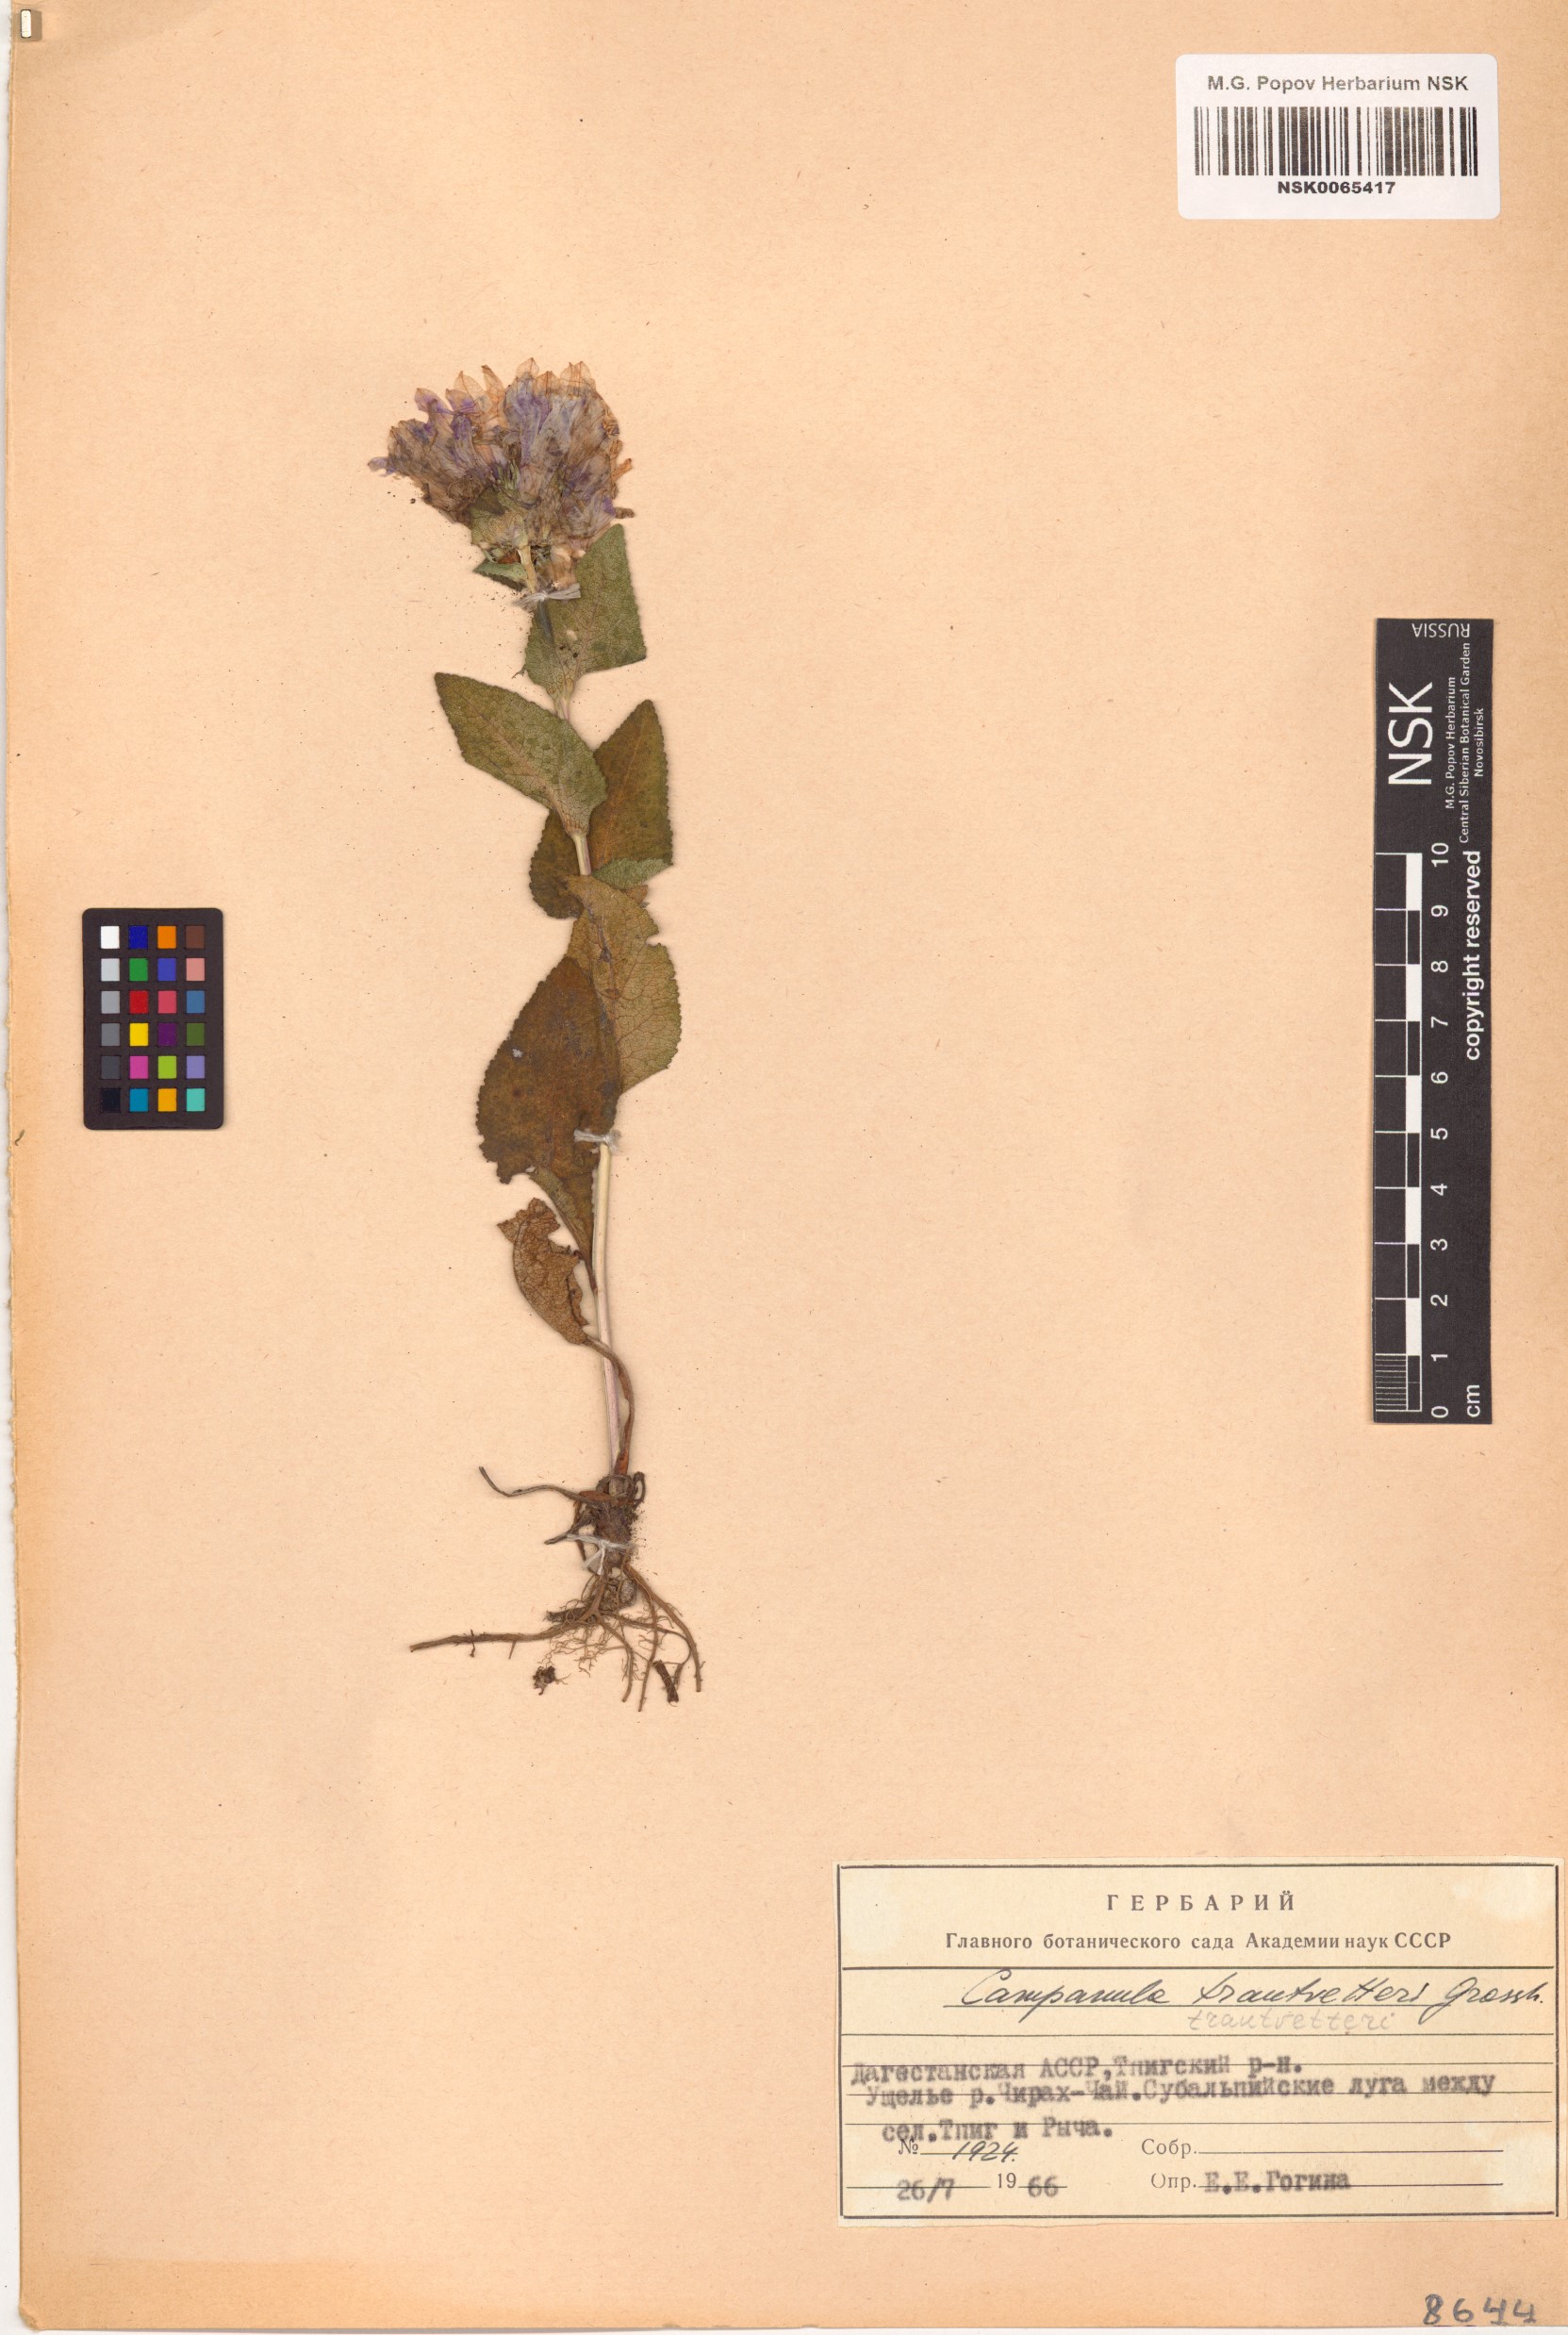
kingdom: Plantae
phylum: Tracheophyta
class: Magnoliopsida
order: Asterales
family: Campanulaceae
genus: Campanula
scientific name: Campanula glomerata
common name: Clustered bellflower
